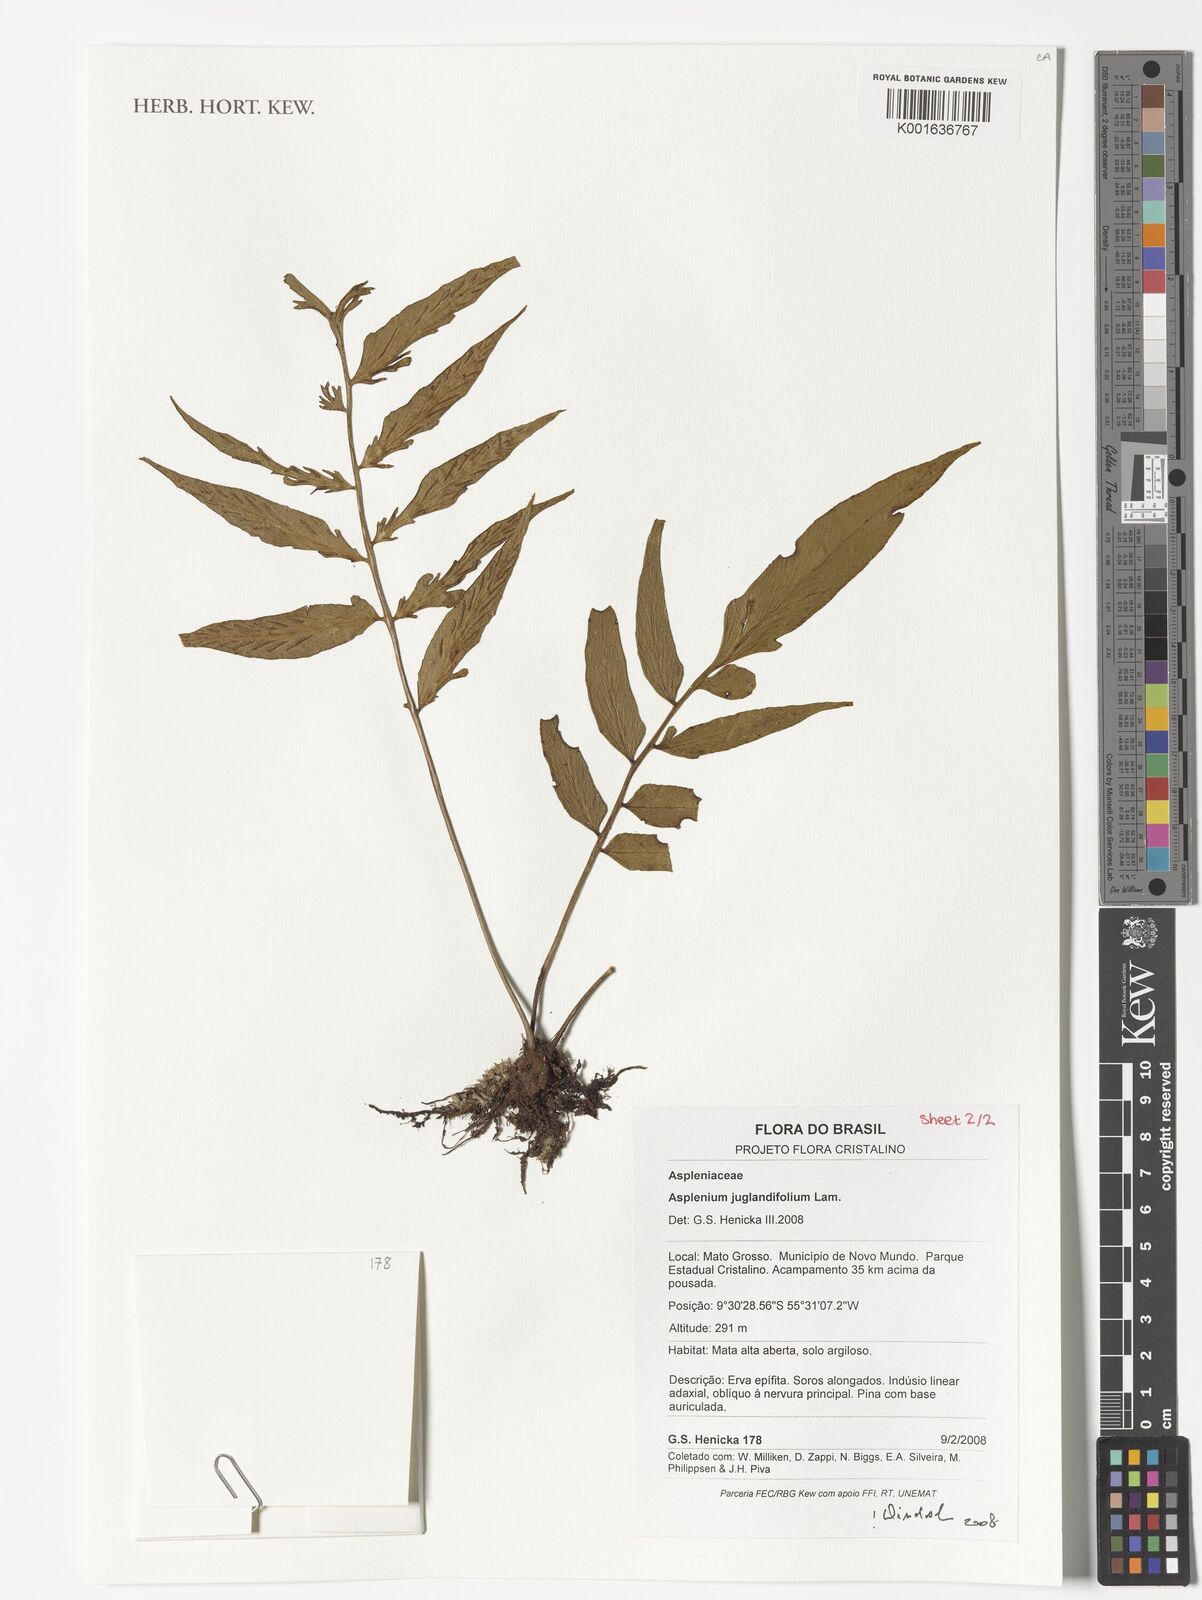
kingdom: Plantae
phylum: Tracheophyta
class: Polypodiopsida
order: Polypodiales
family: Aspleniaceae
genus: Asplenium
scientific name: Asplenium juglandifolium
